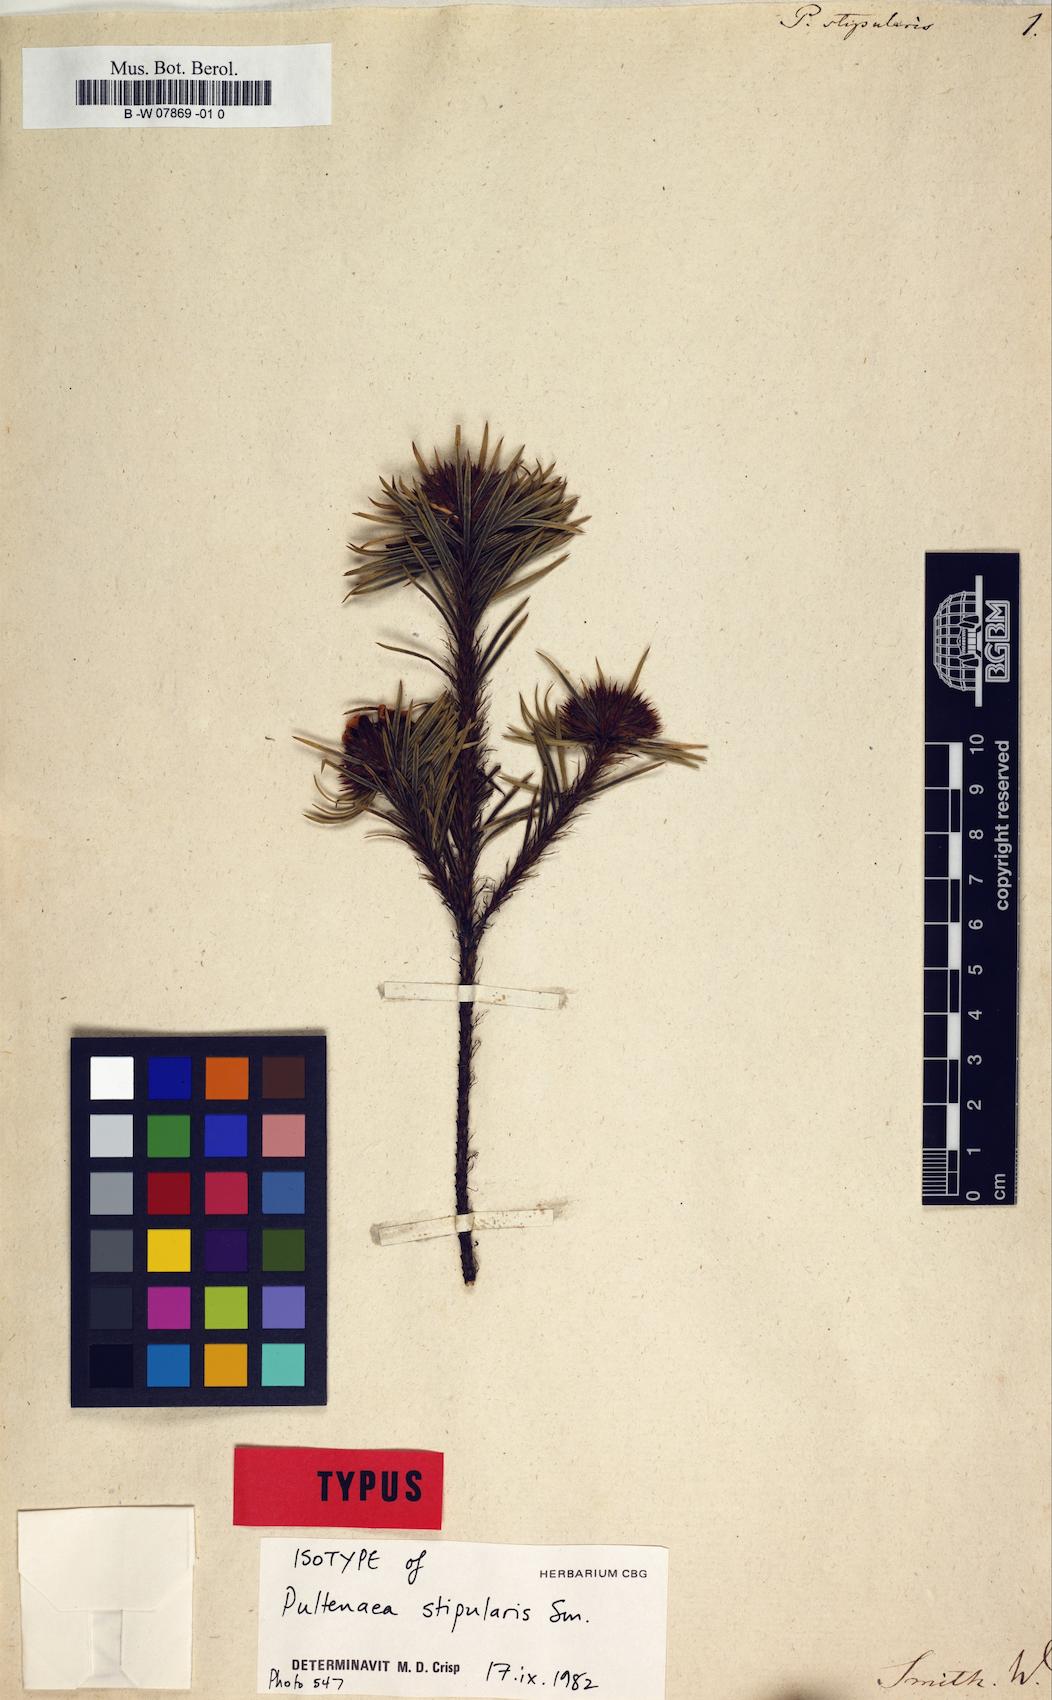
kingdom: Plantae
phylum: Tracheophyta
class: Magnoliopsida
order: Fabales
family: Fabaceae
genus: Pultenaea
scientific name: Pultenaea stipularis
